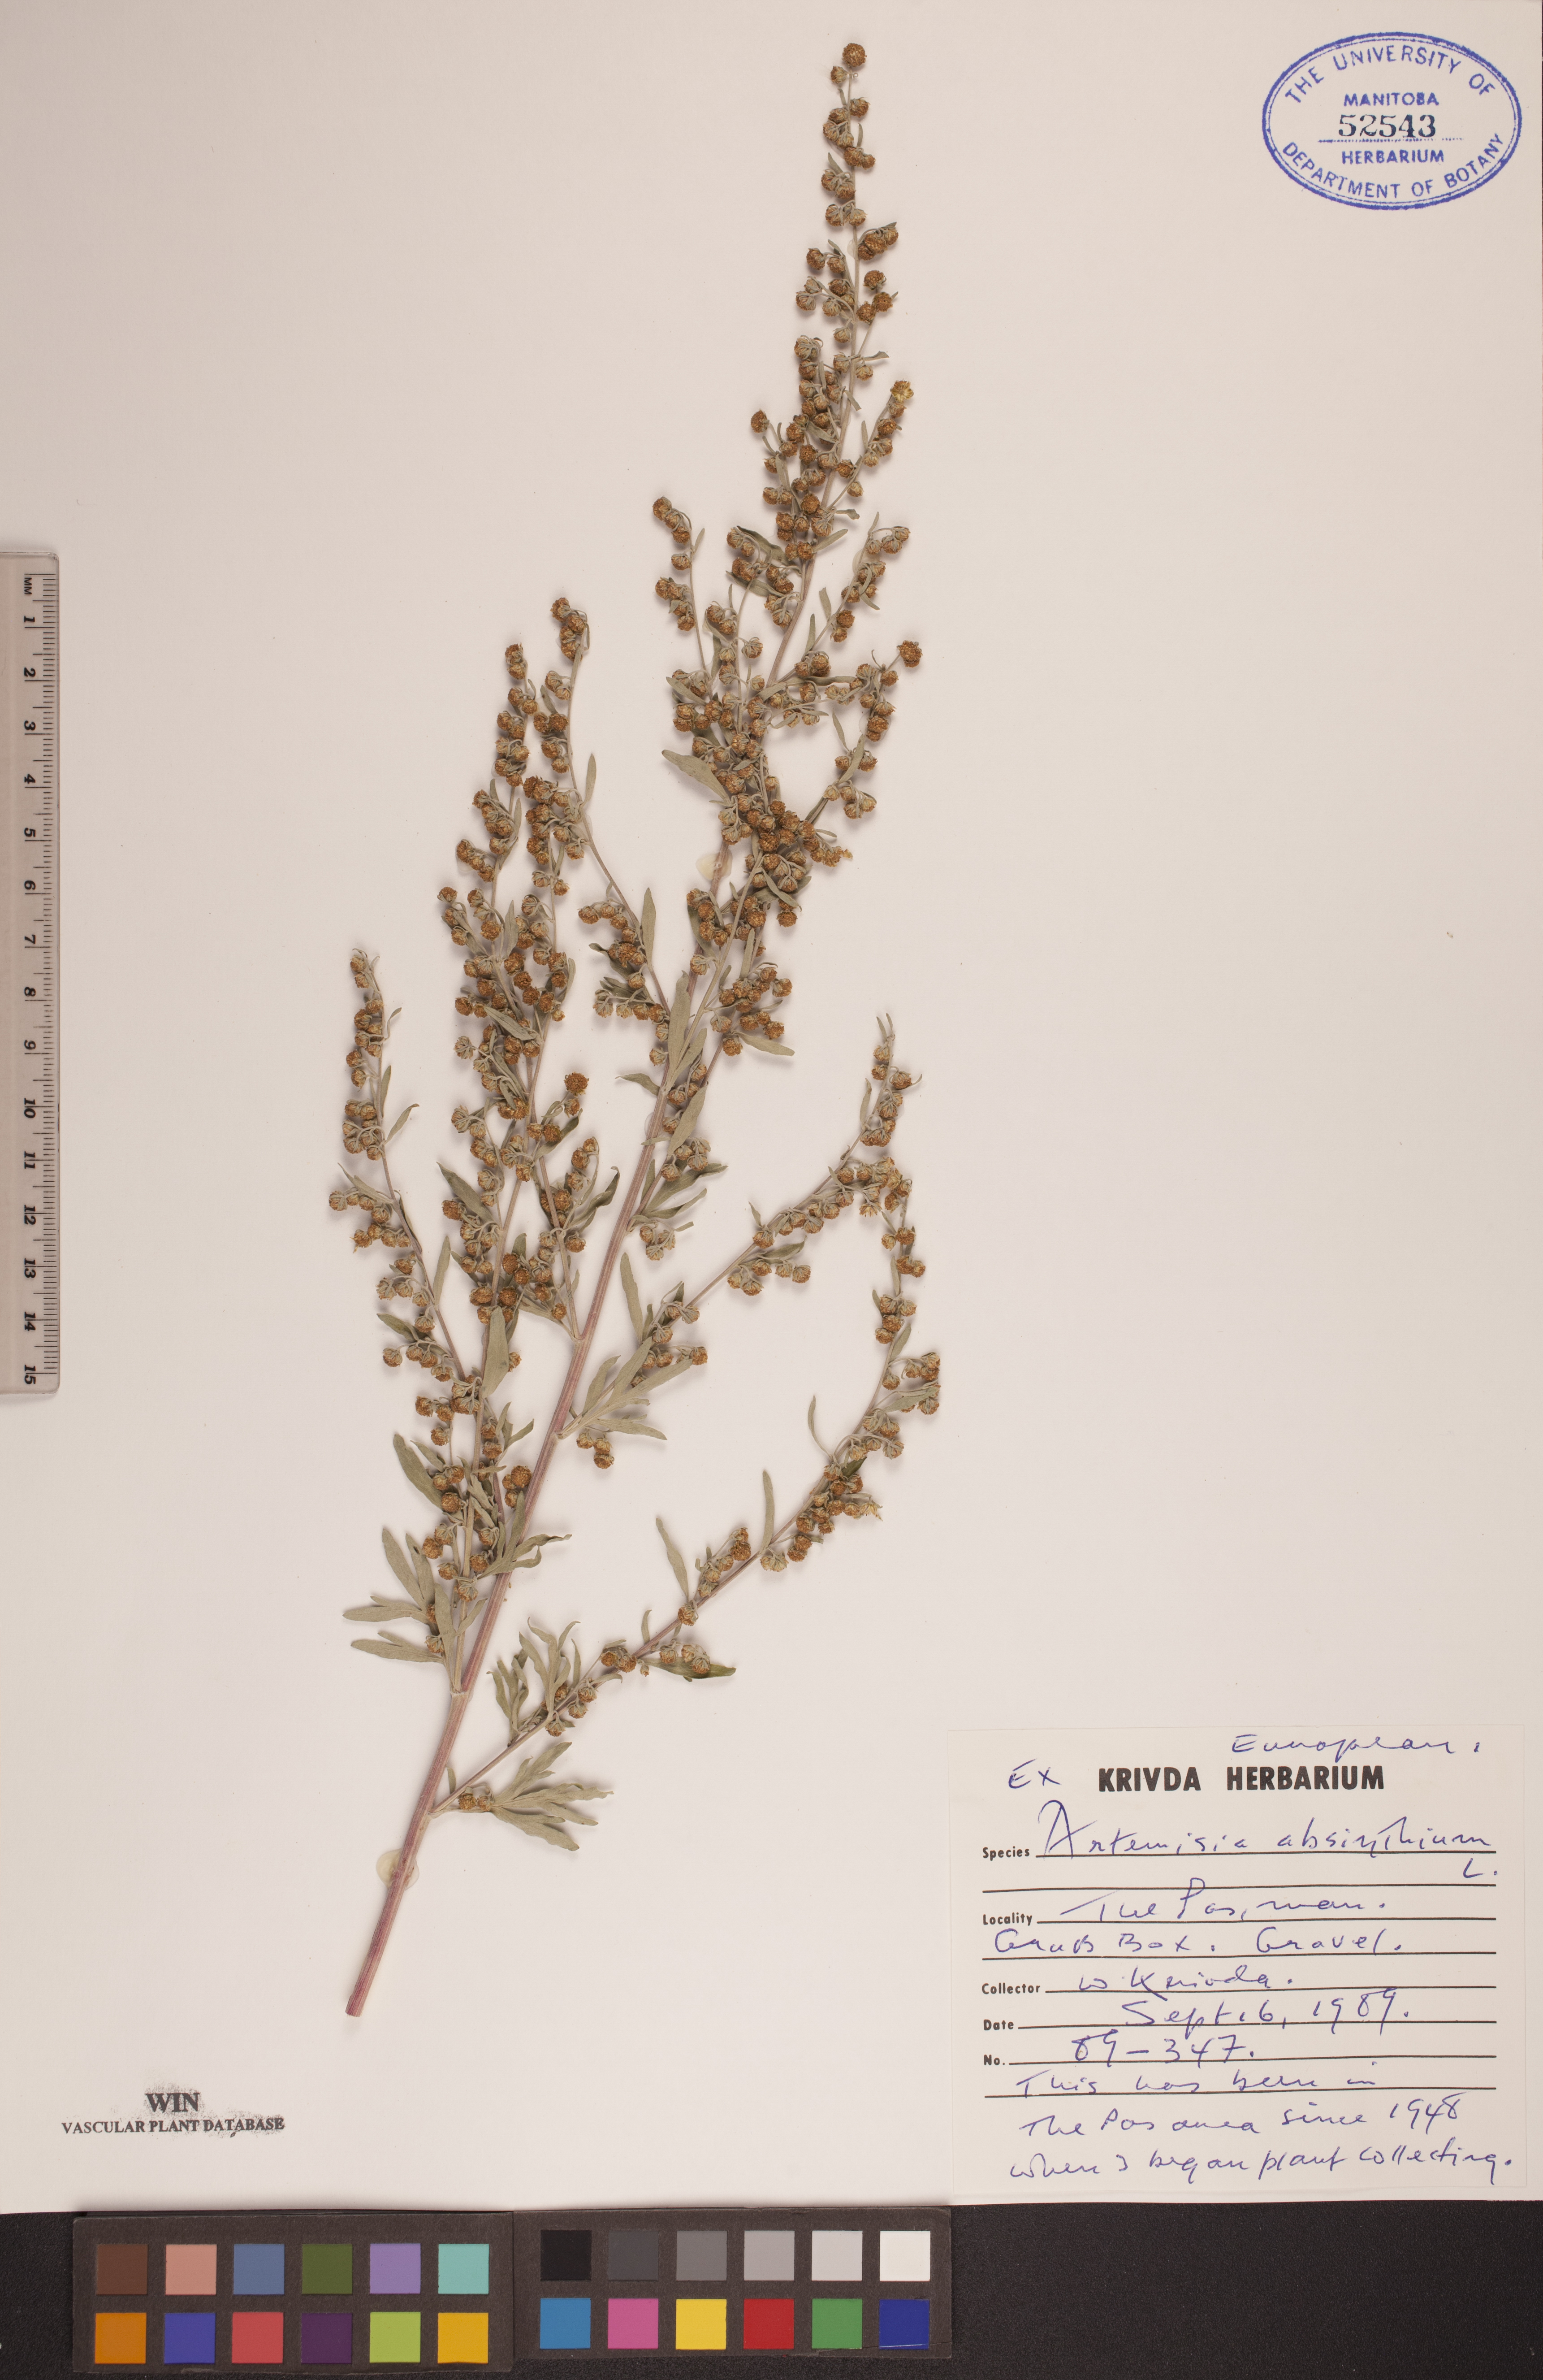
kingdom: Plantae
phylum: Tracheophyta
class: Magnoliopsida
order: Asterales
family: Asteraceae
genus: Artemisia
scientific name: Artemisia absinthium
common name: Wormwood
